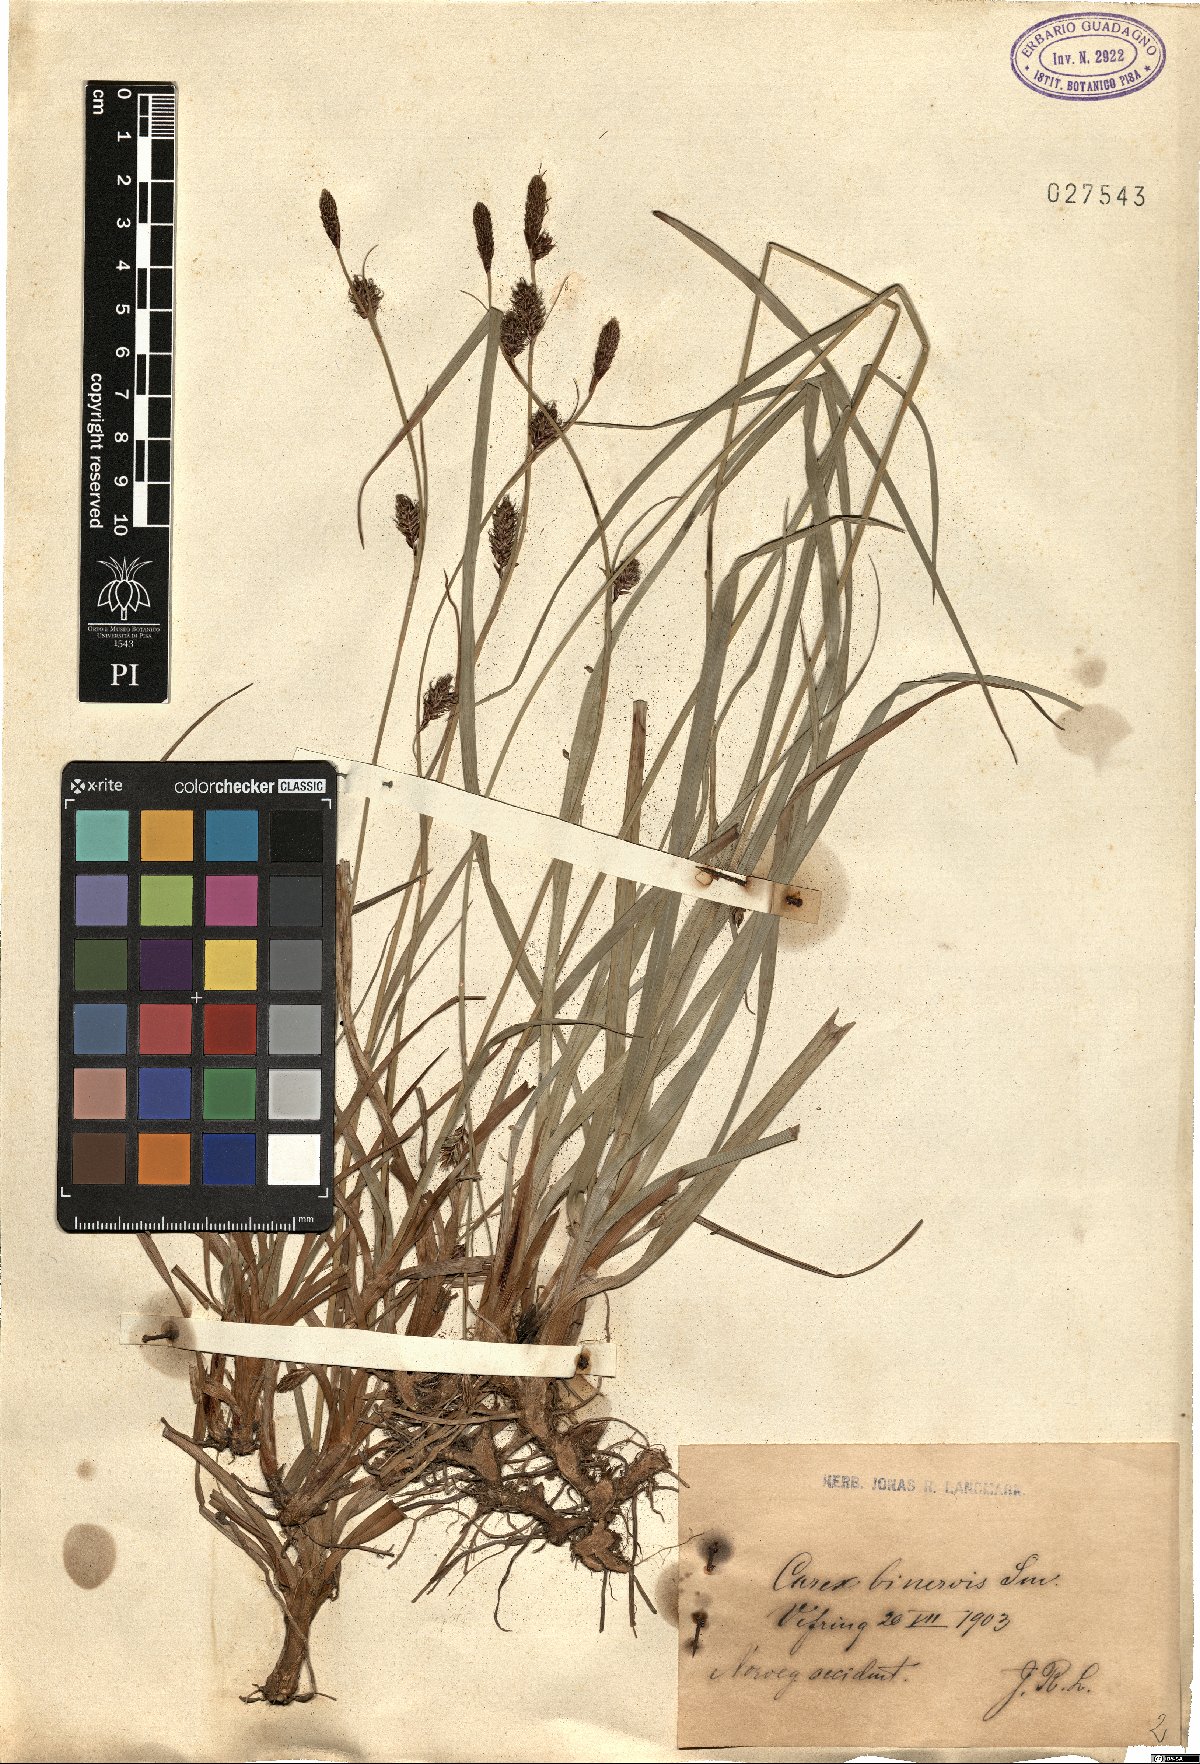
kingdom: Plantae
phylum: Tracheophyta
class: Liliopsida
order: Poales
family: Cyperaceae
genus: Carex
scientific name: Carex binervis
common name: Green-ribbed sedge
